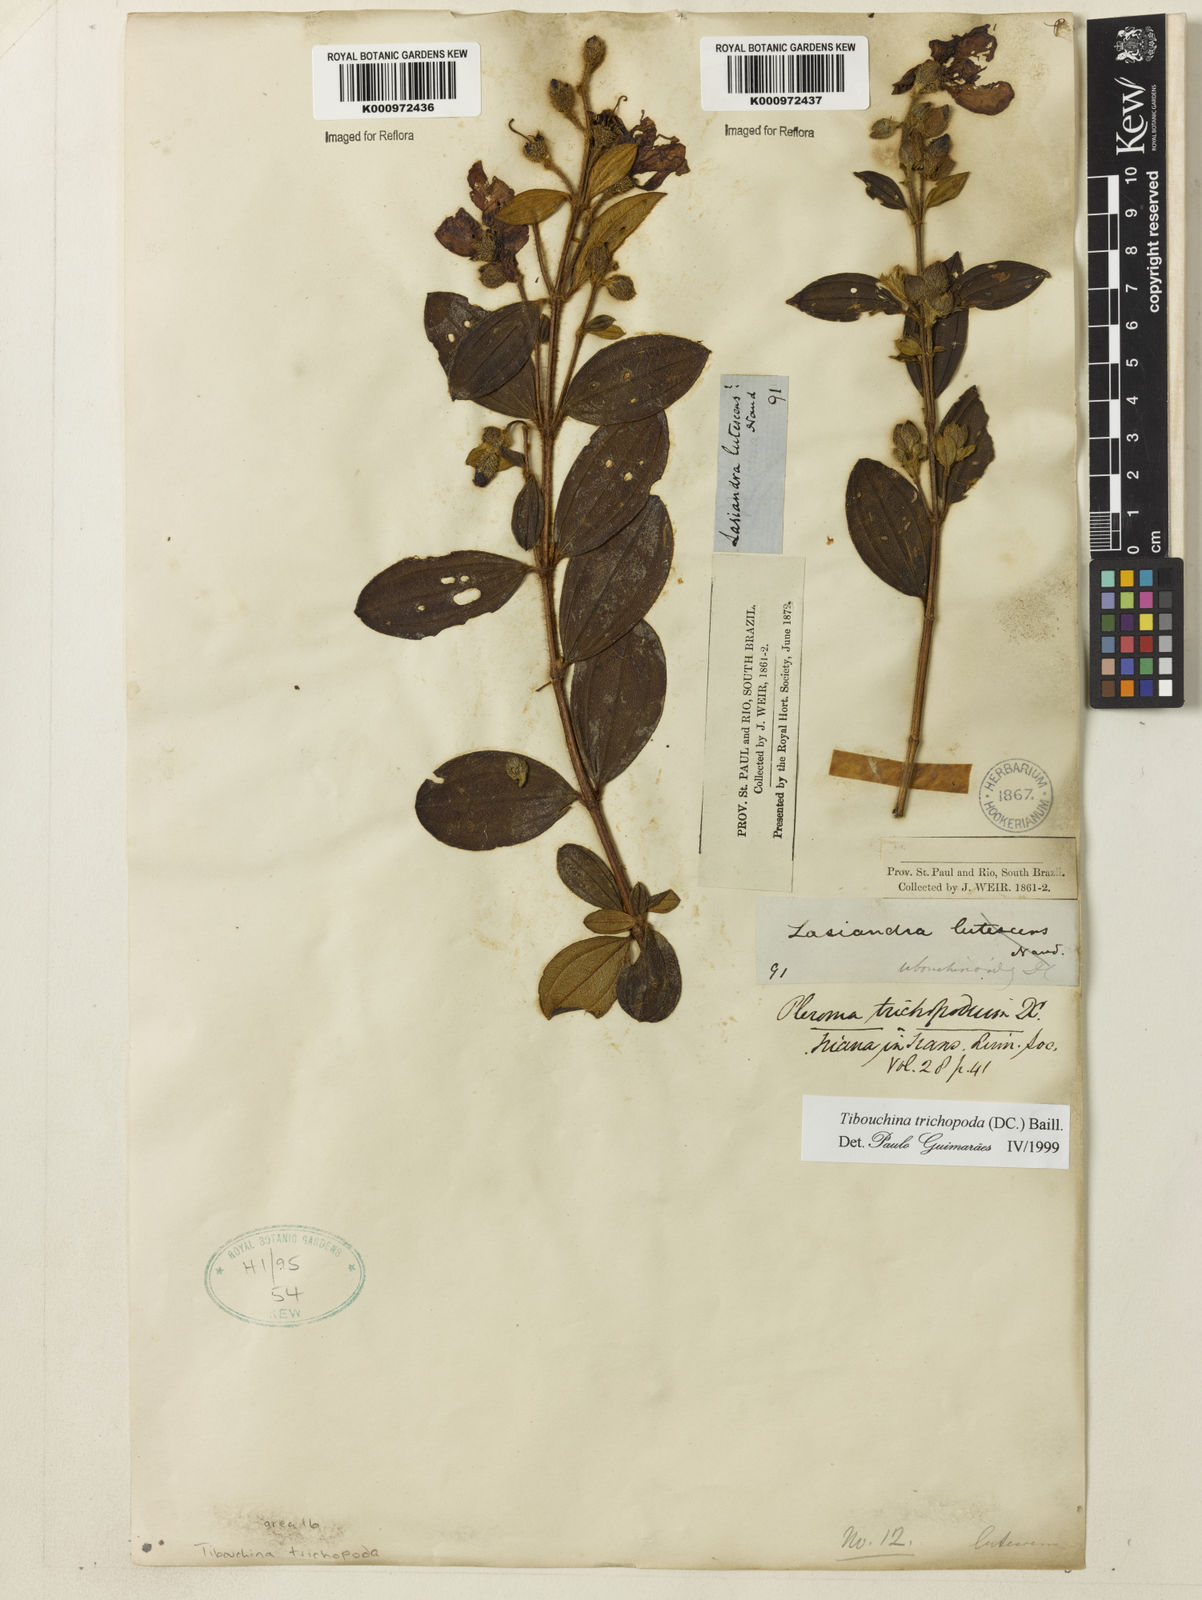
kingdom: Plantae
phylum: Tracheophyta
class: Magnoliopsida
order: Myrtales
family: Melastomataceae
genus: Pleroma
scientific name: Pleroma trichopodum
